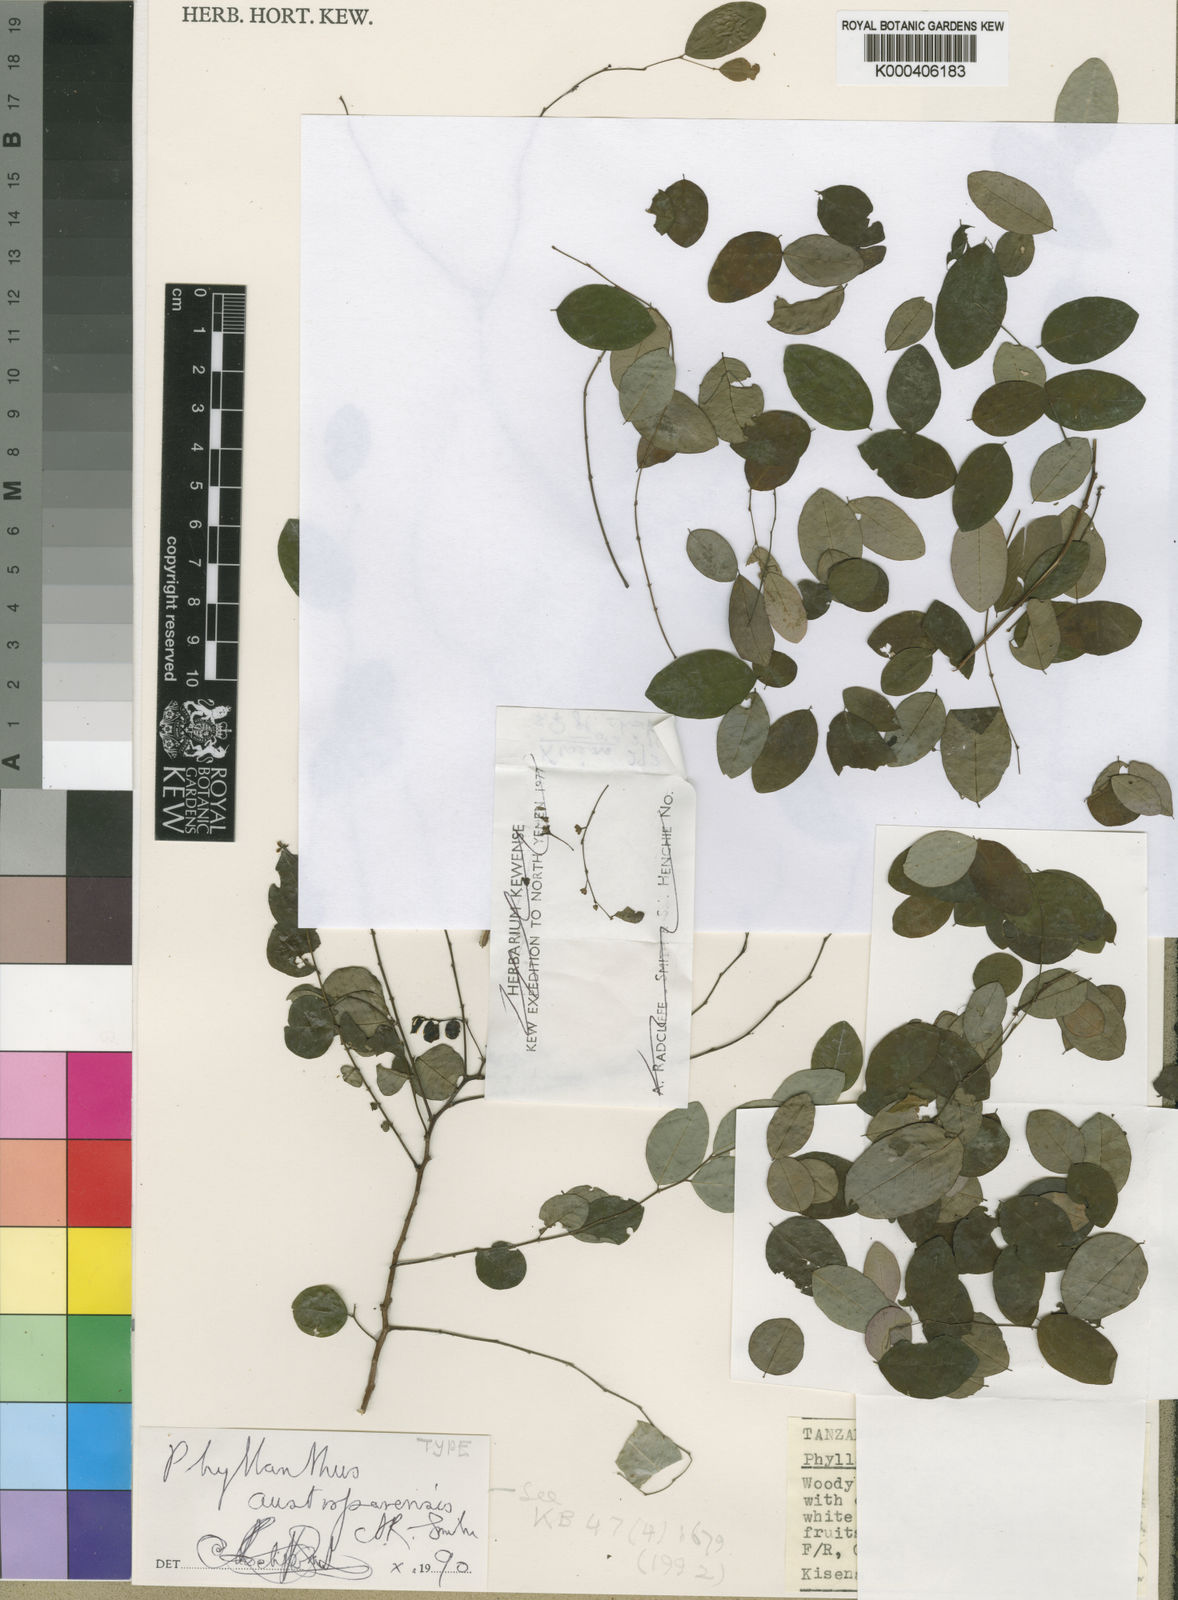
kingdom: Plantae
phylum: Tracheophyta
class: Magnoliopsida
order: Malpighiales
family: Phyllanthaceae
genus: Phyllanthus
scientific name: Phyllanthus austroparensis
